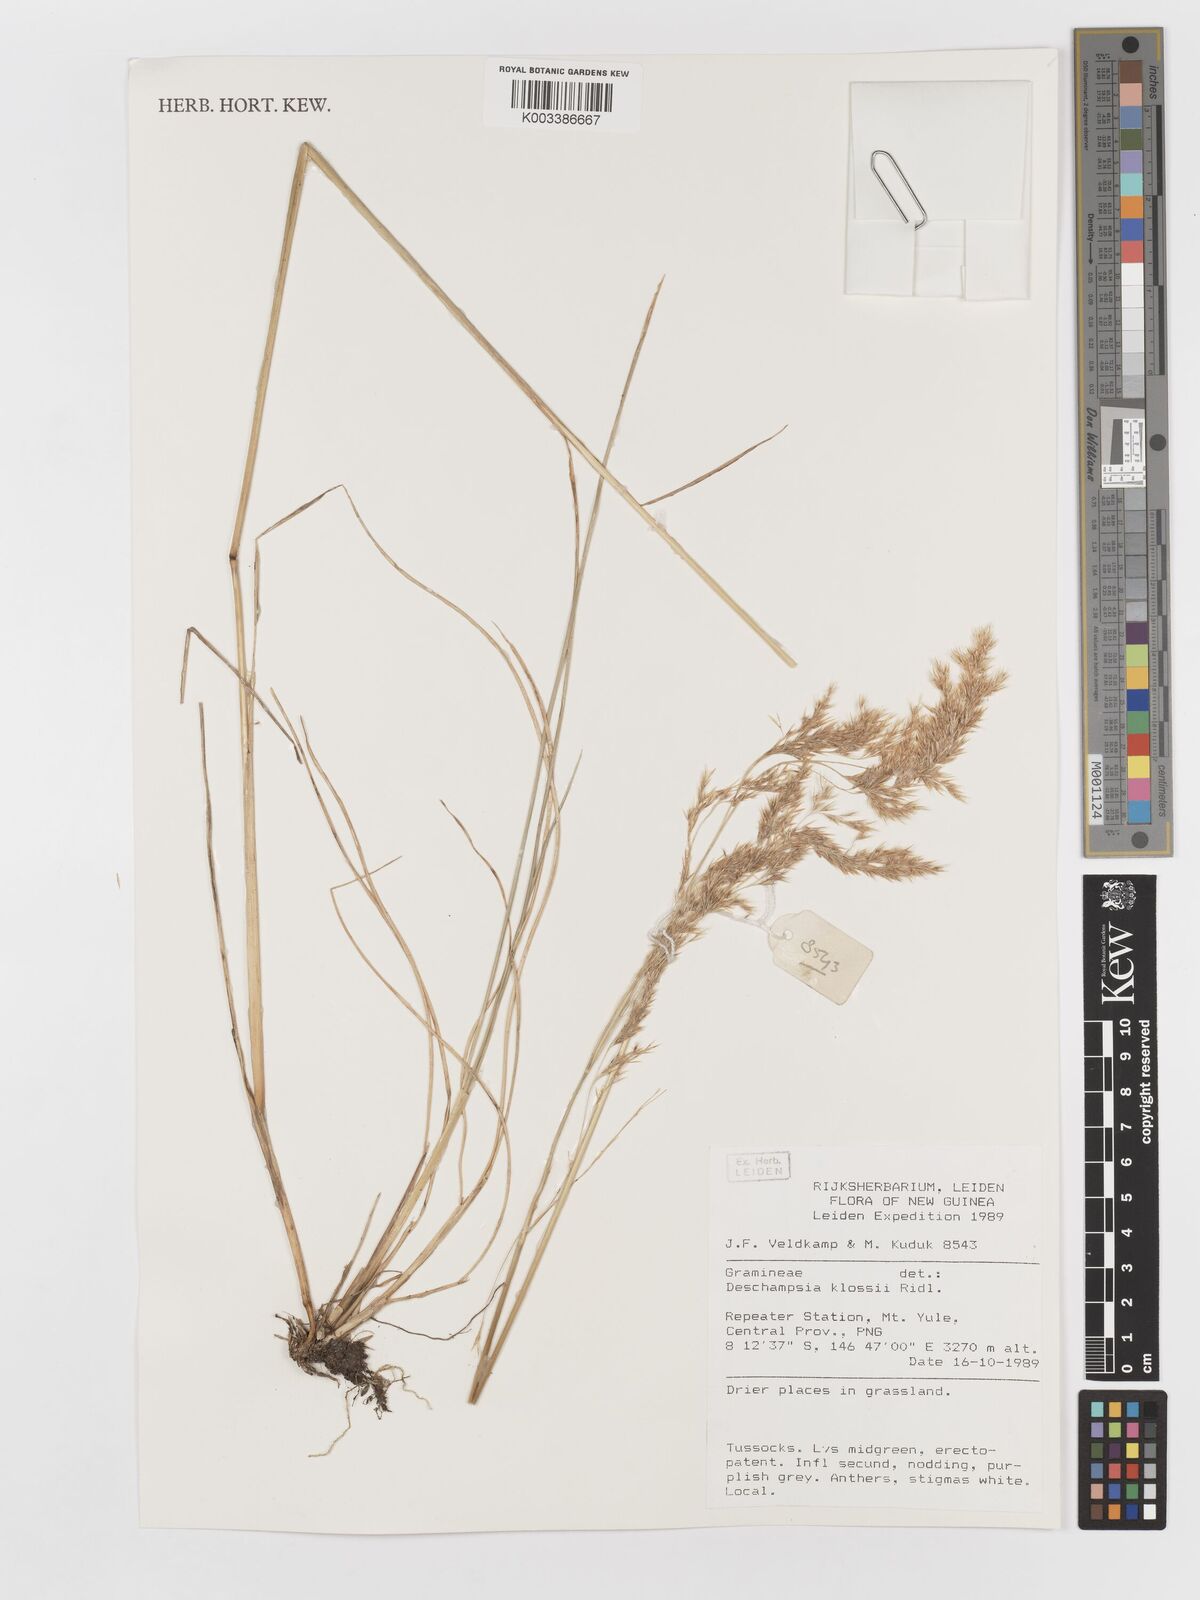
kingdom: Plantae
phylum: Tracheophyta
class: Liliopsida
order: Poales
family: Poaceae
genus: Deschampsia
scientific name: Deschampsia klossii
